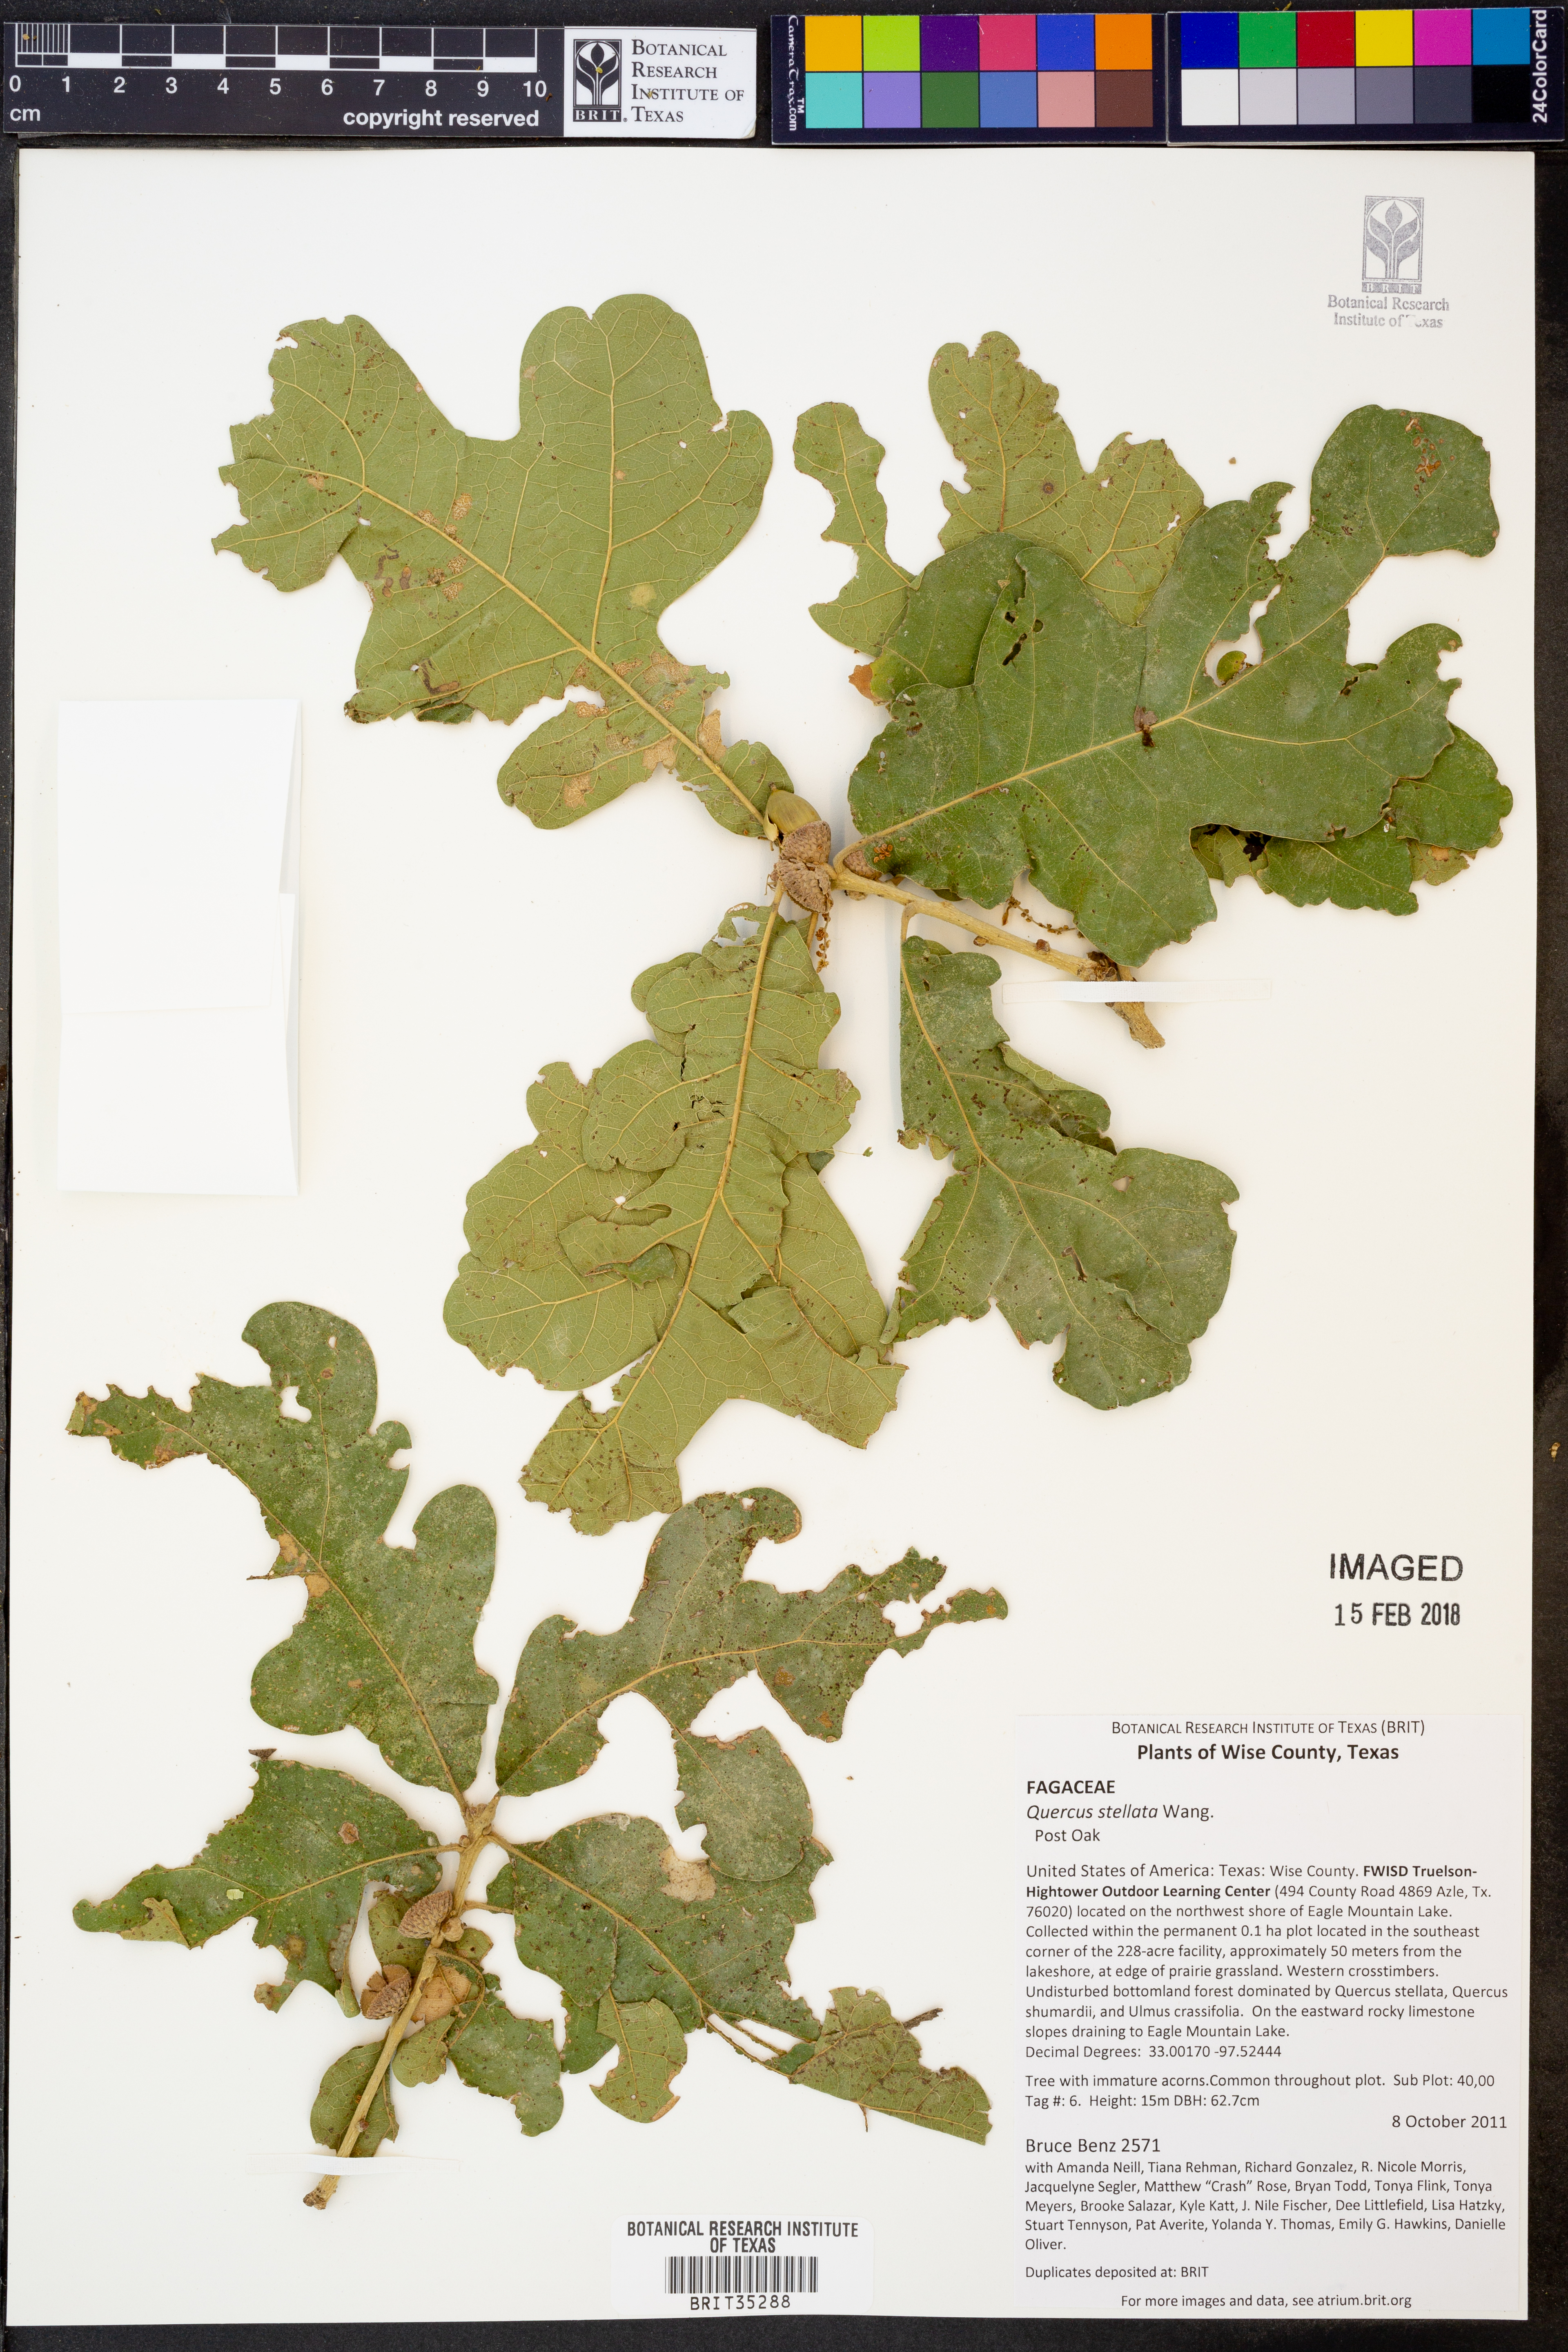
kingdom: Plantae
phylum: Tracheophyta
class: Magnoliopsida
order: Fagales
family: Fagaceae
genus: Quercus
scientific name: Quercus stellata
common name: Post oak
